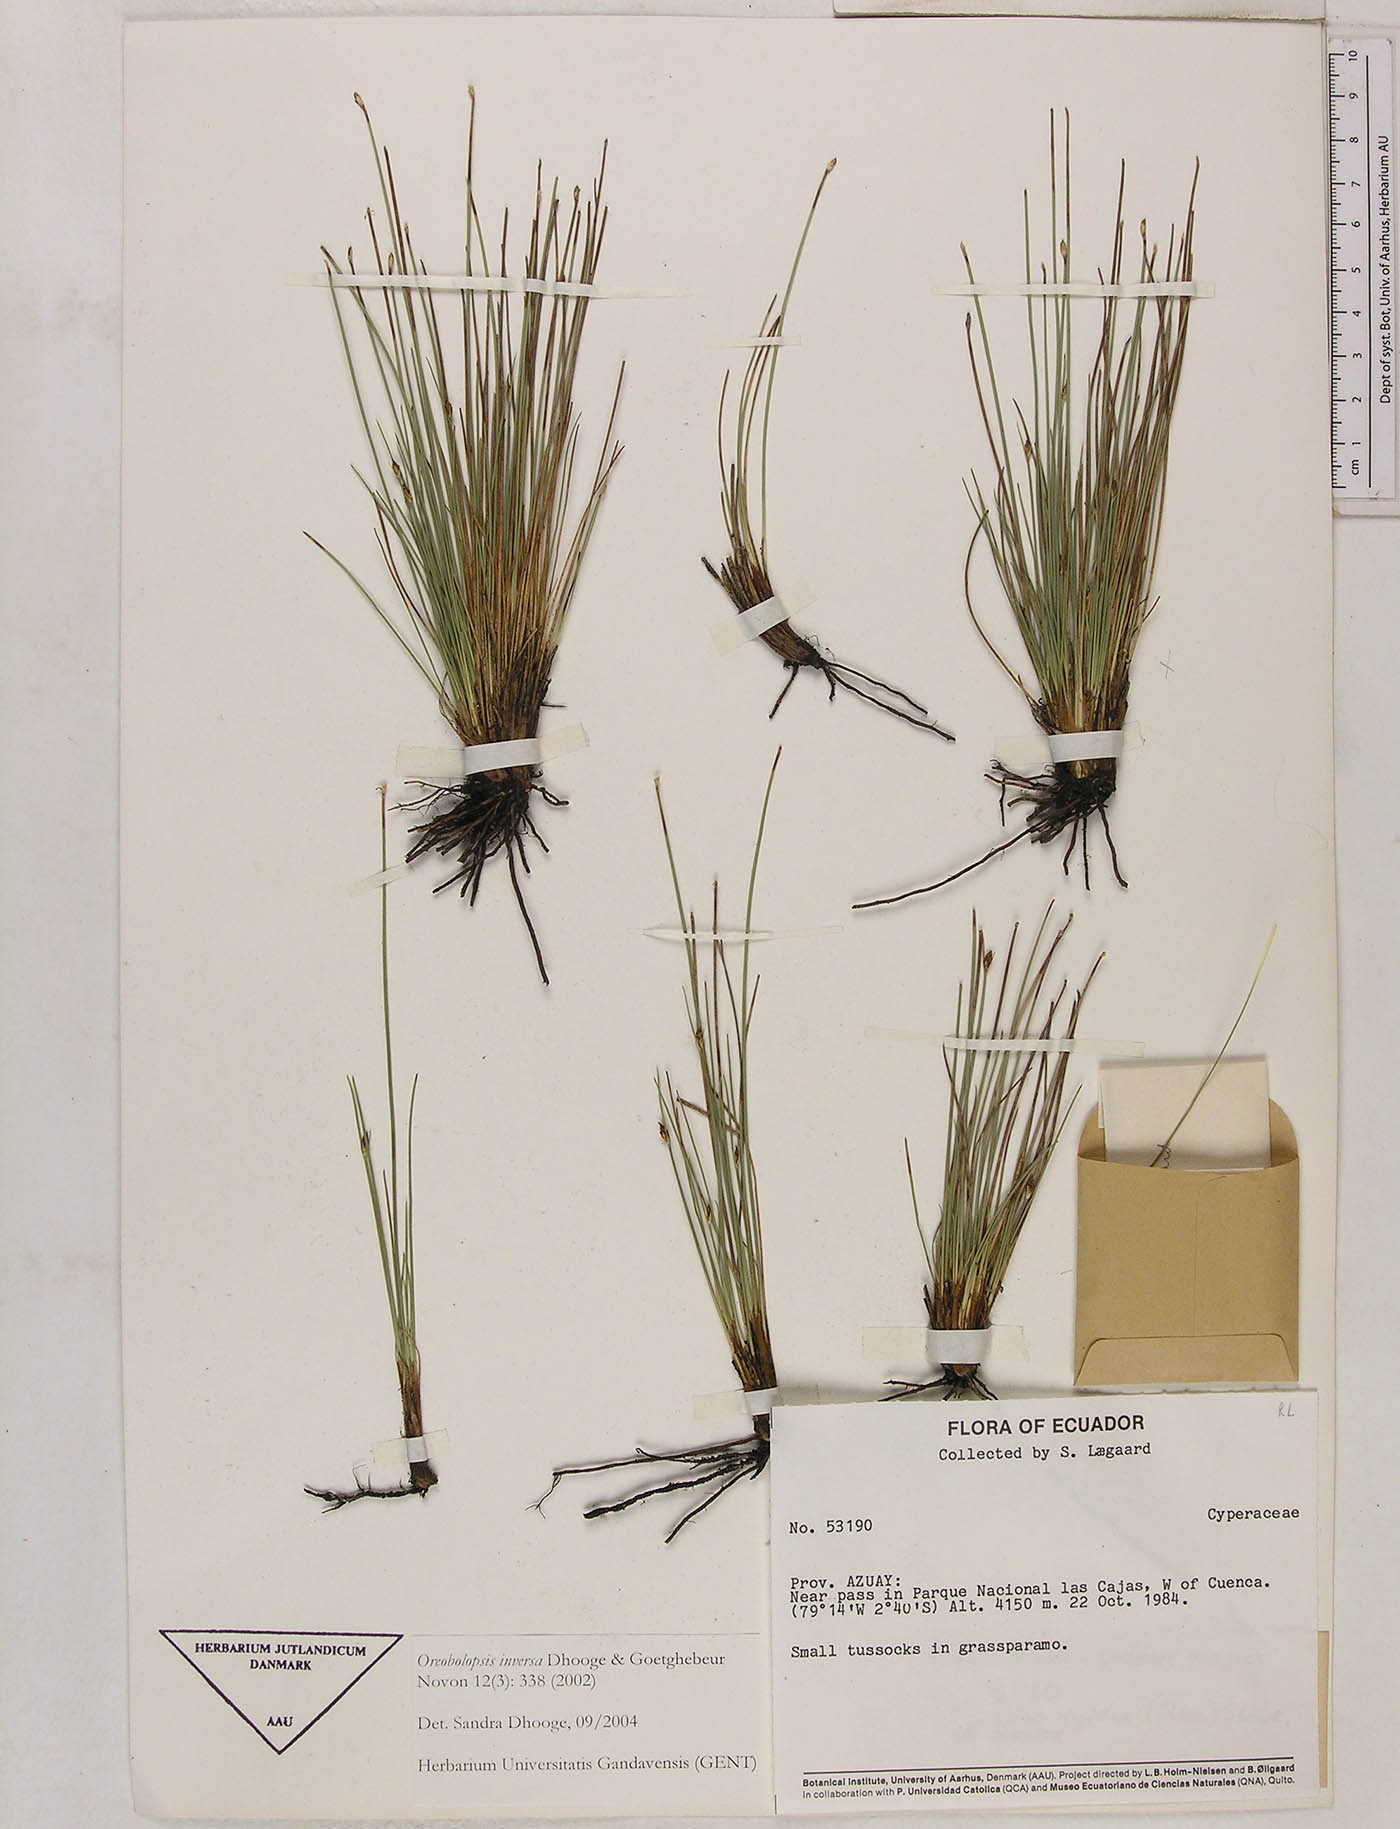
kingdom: Plantae
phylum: Tracheophyta
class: Liliopsida
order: Poales
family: Cyperaceae
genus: Trichophorum
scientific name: Trichophorum inversum
